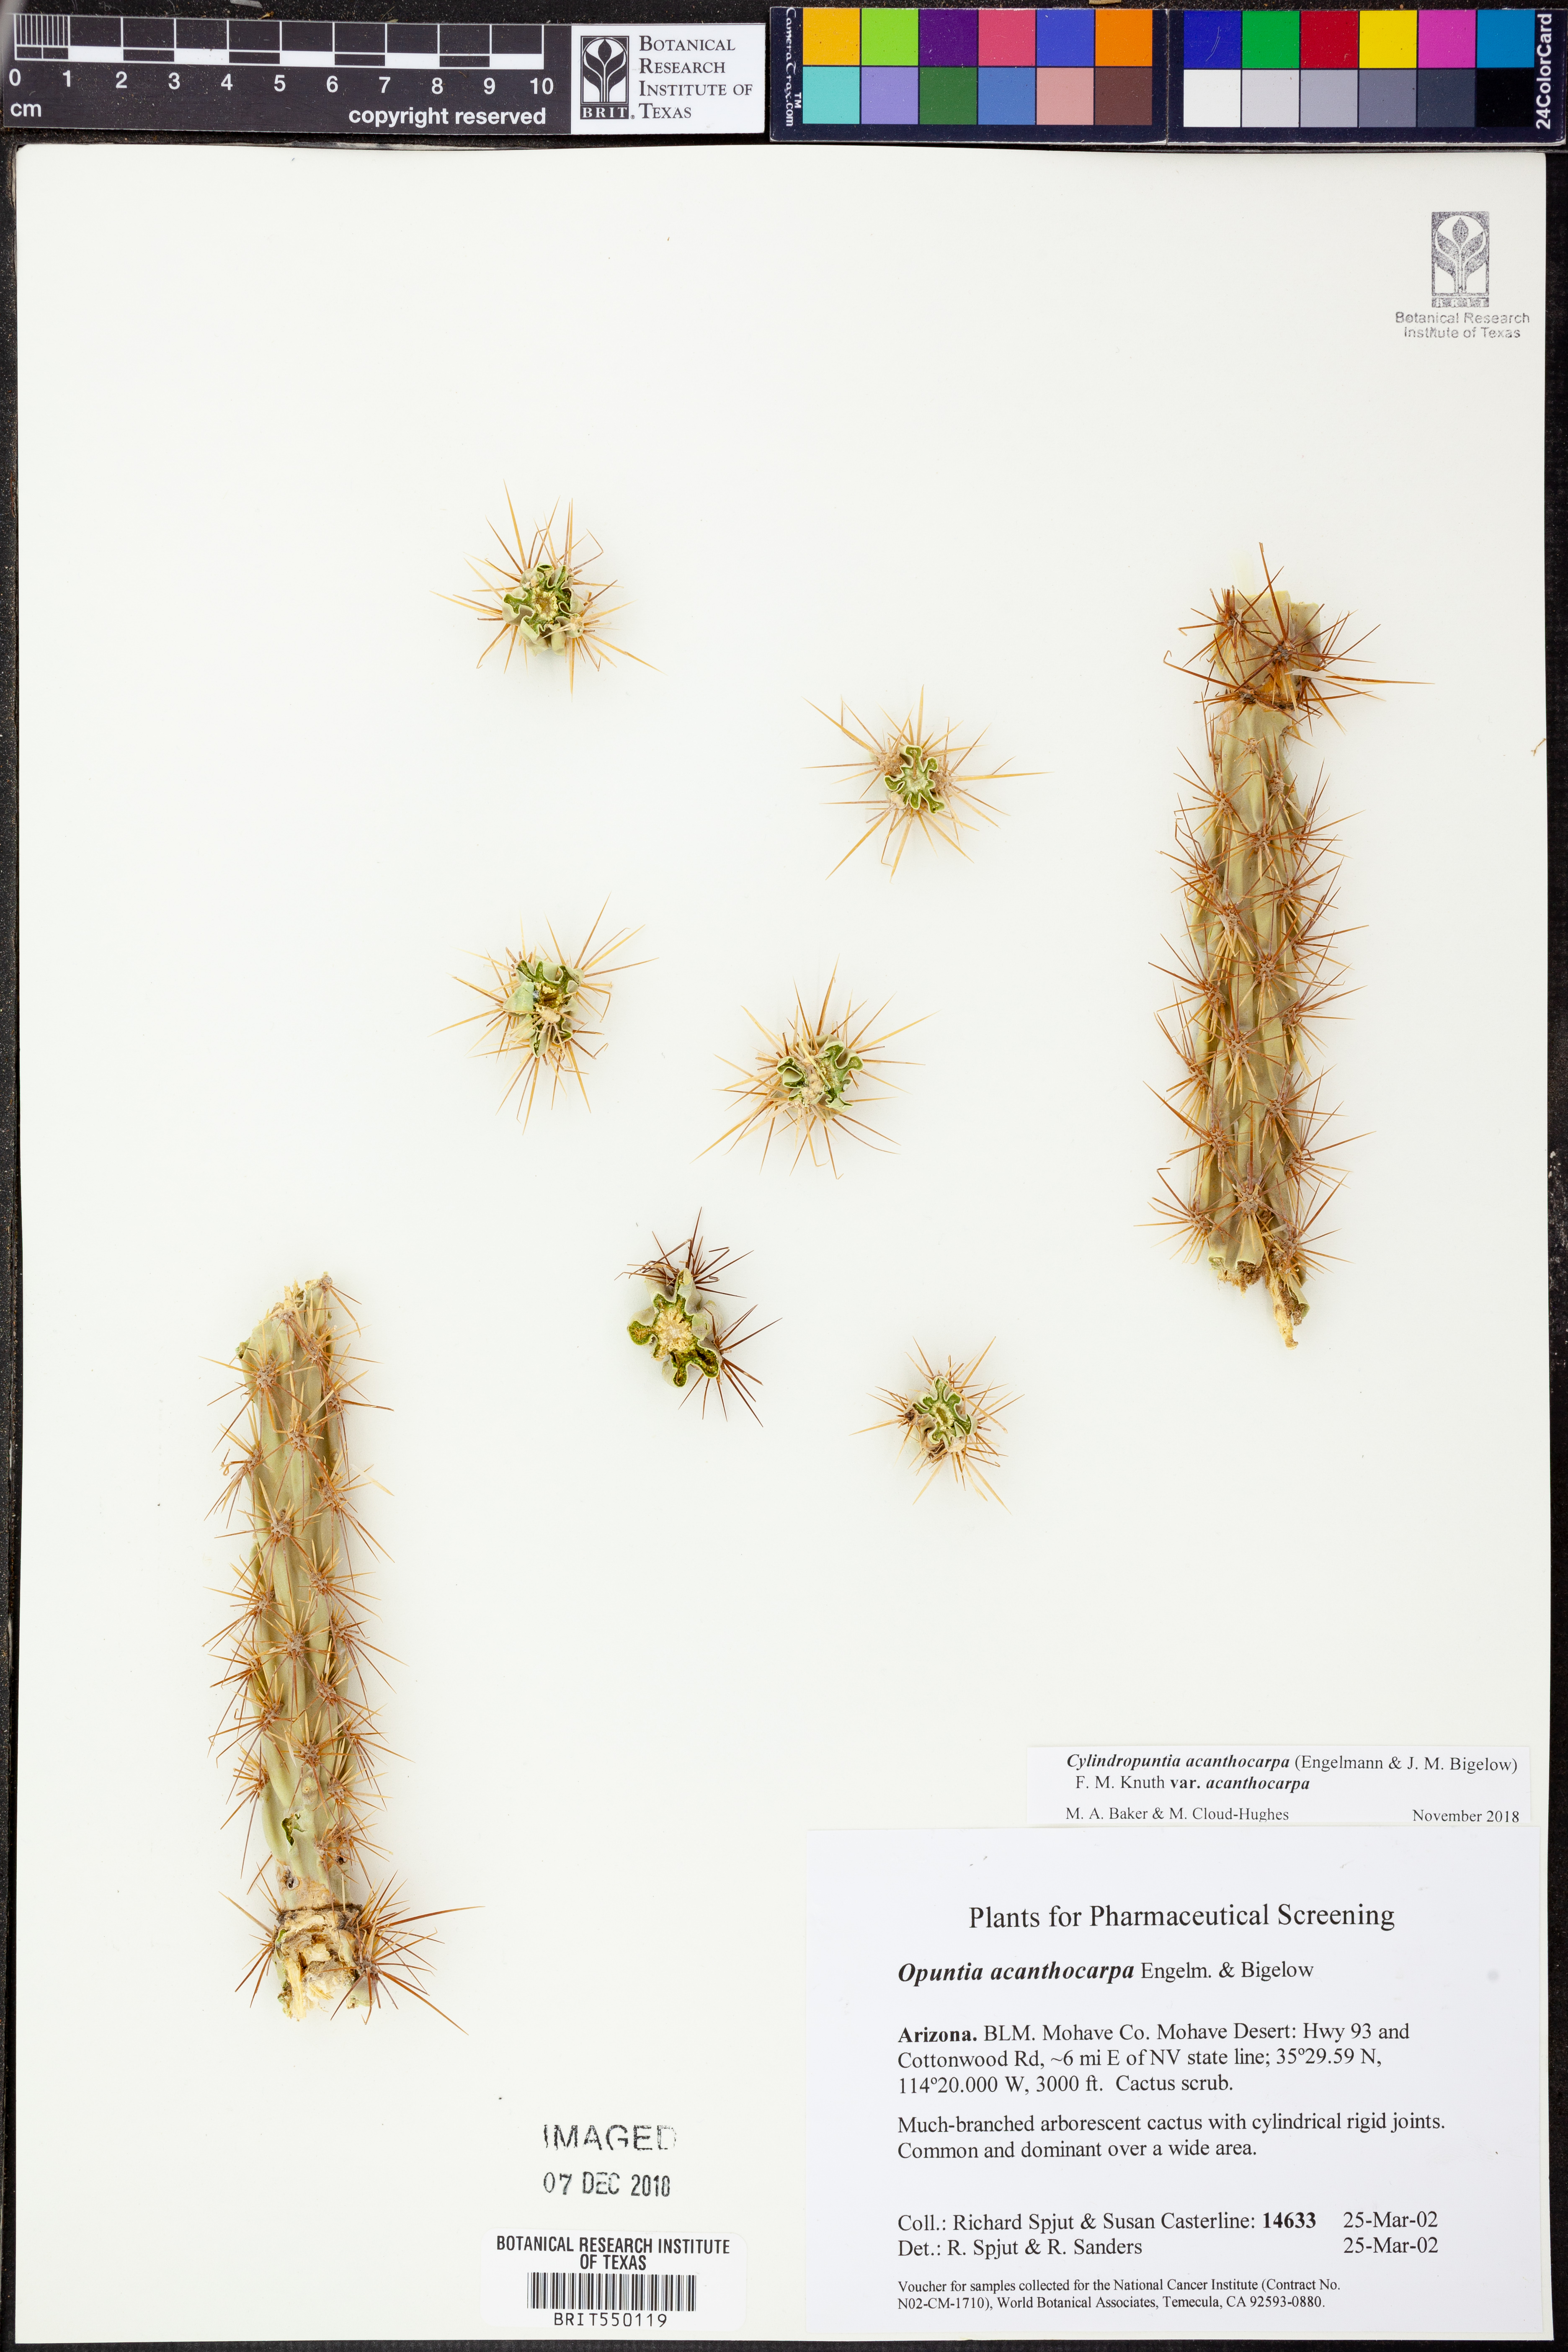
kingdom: Plantae
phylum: Tracheophyta
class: Magnoliopsida
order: Caryophyllales
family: Cactaceae
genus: Cylindropuntia
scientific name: Cylindropuntia acanthocarpa
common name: Buckhorn cholla
